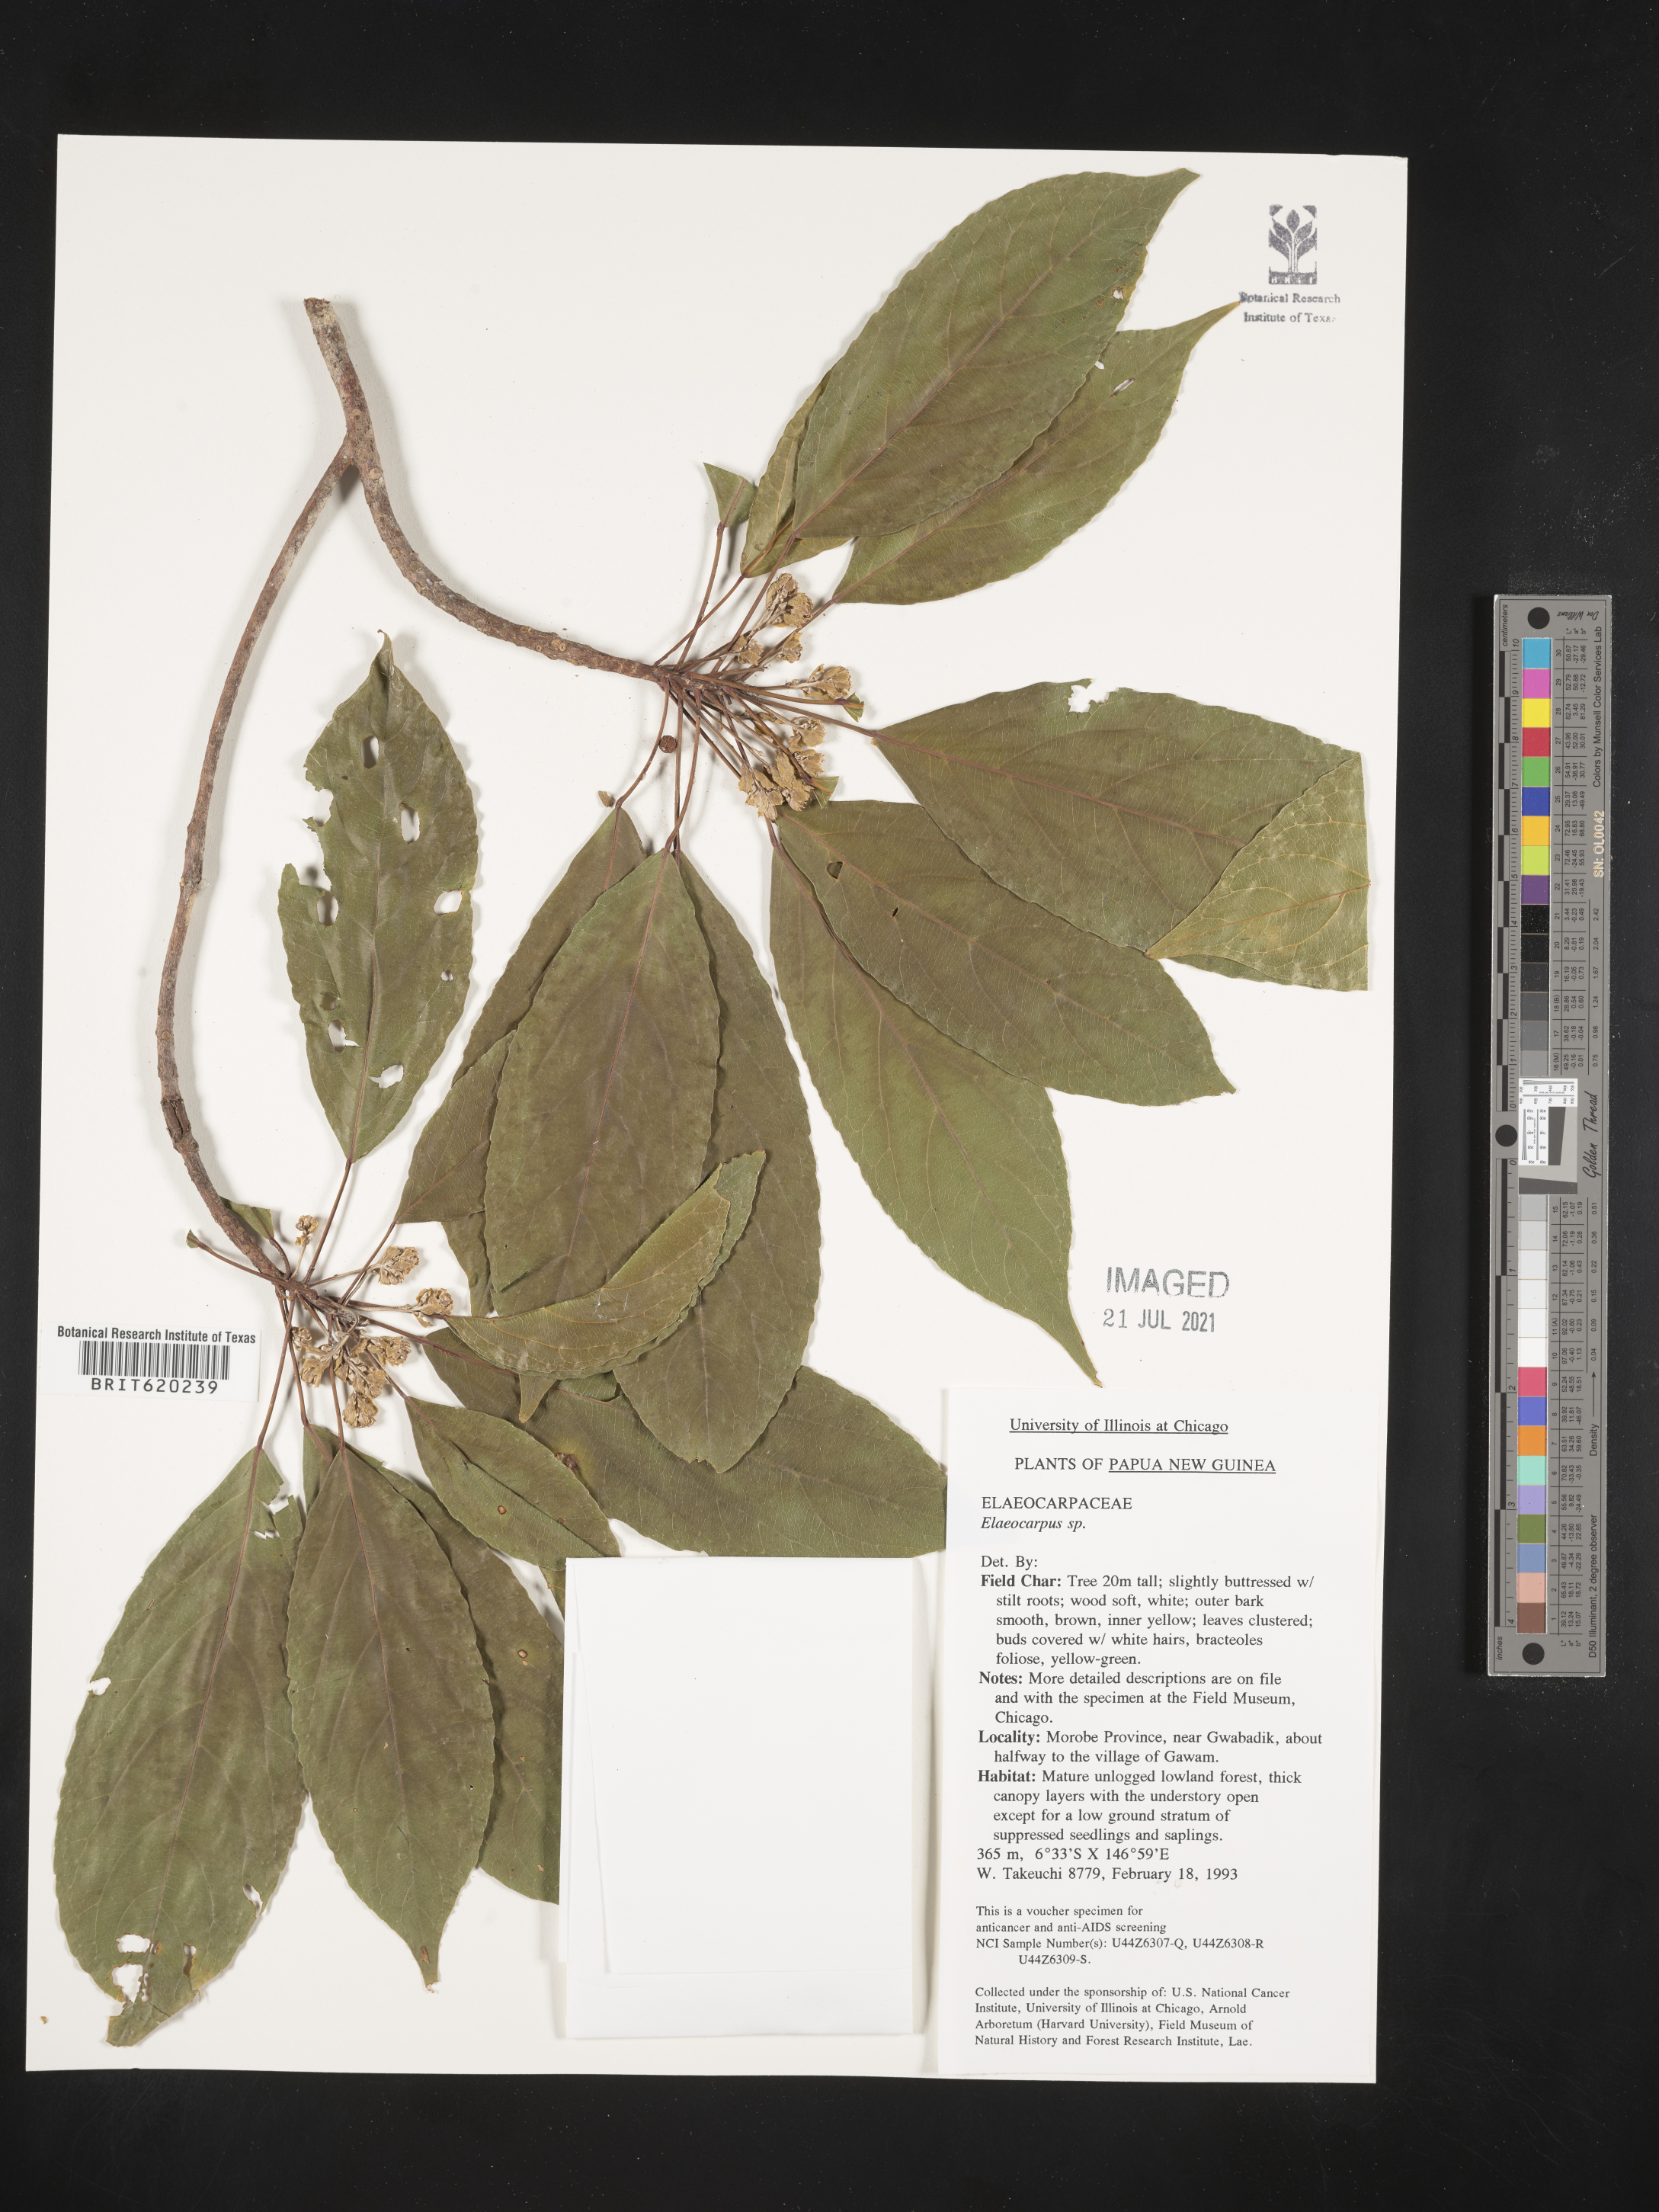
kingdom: Plantae
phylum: Tracheophyta
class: Magnoliopsida
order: Oxalidales
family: Elaeocarpaceae
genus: Elaeocarpus
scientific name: Elaeocarpus
